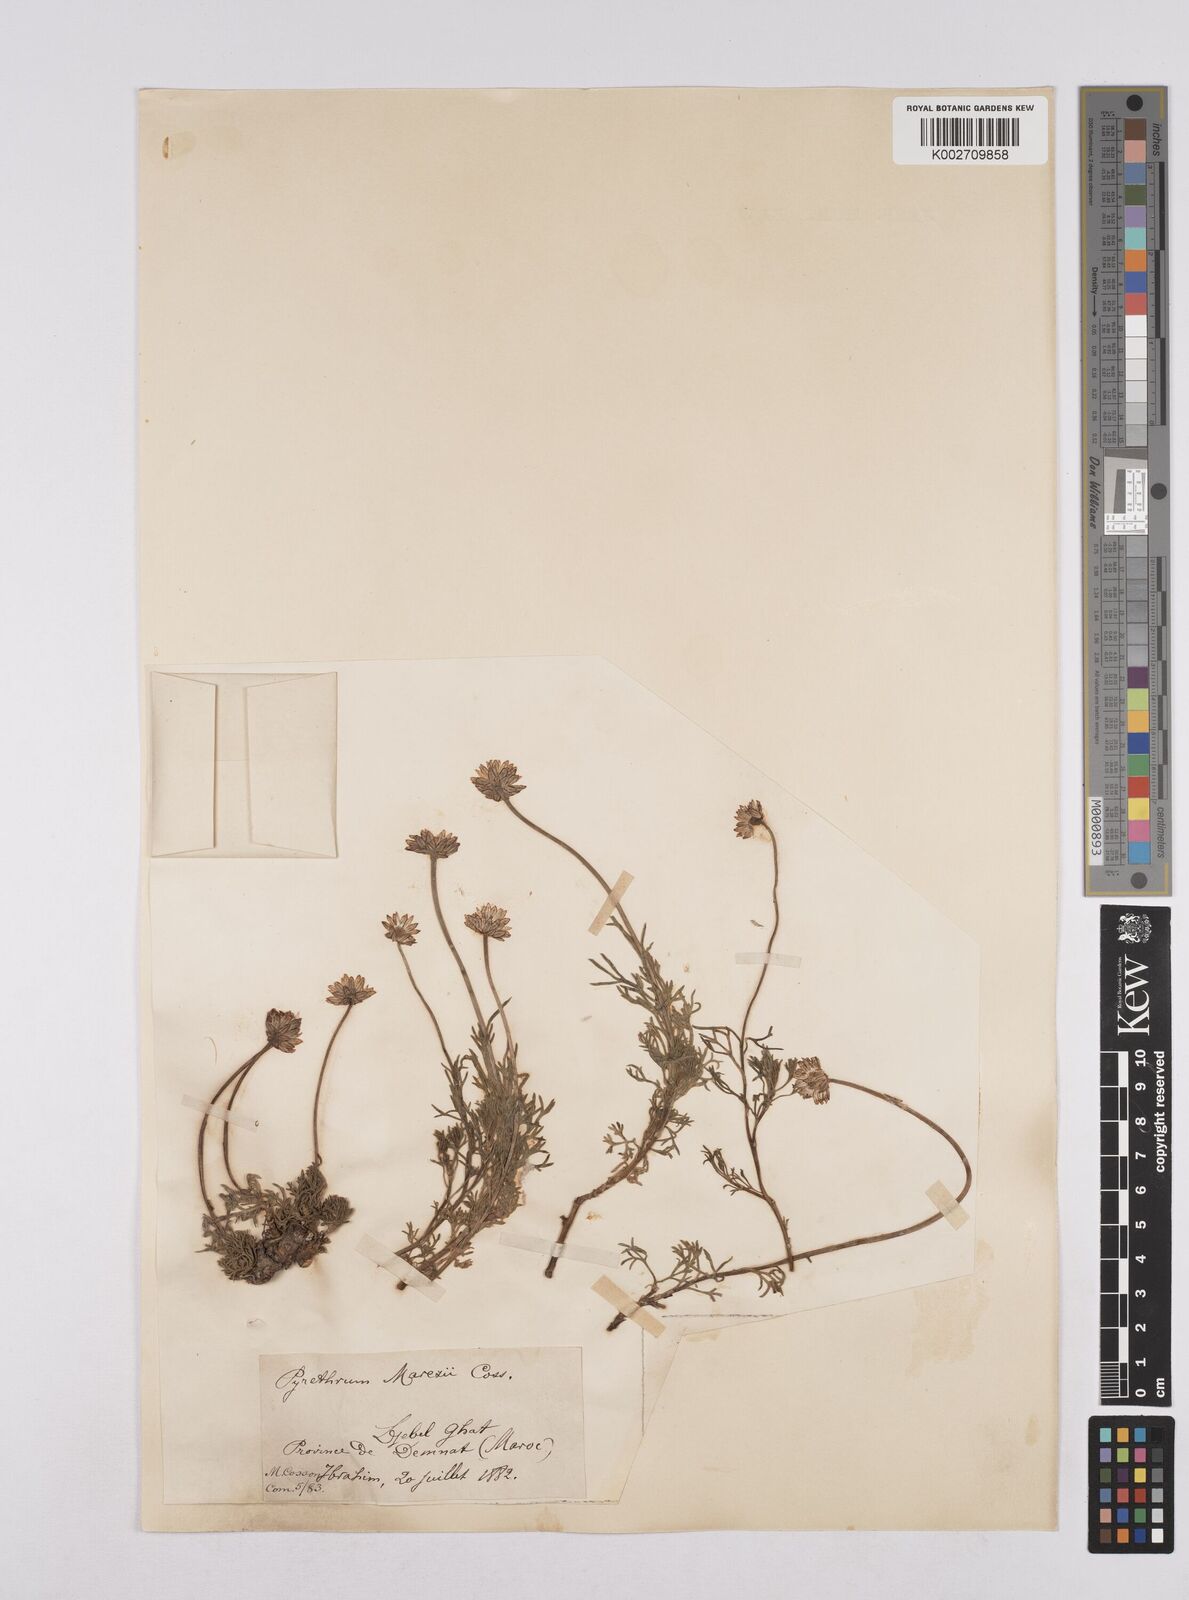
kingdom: Plantae
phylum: Tracheophyta
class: Magnoliopsida
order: Asterales
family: Asteraceae
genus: Rhodanthemum
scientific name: Rhodanthemum depressum
